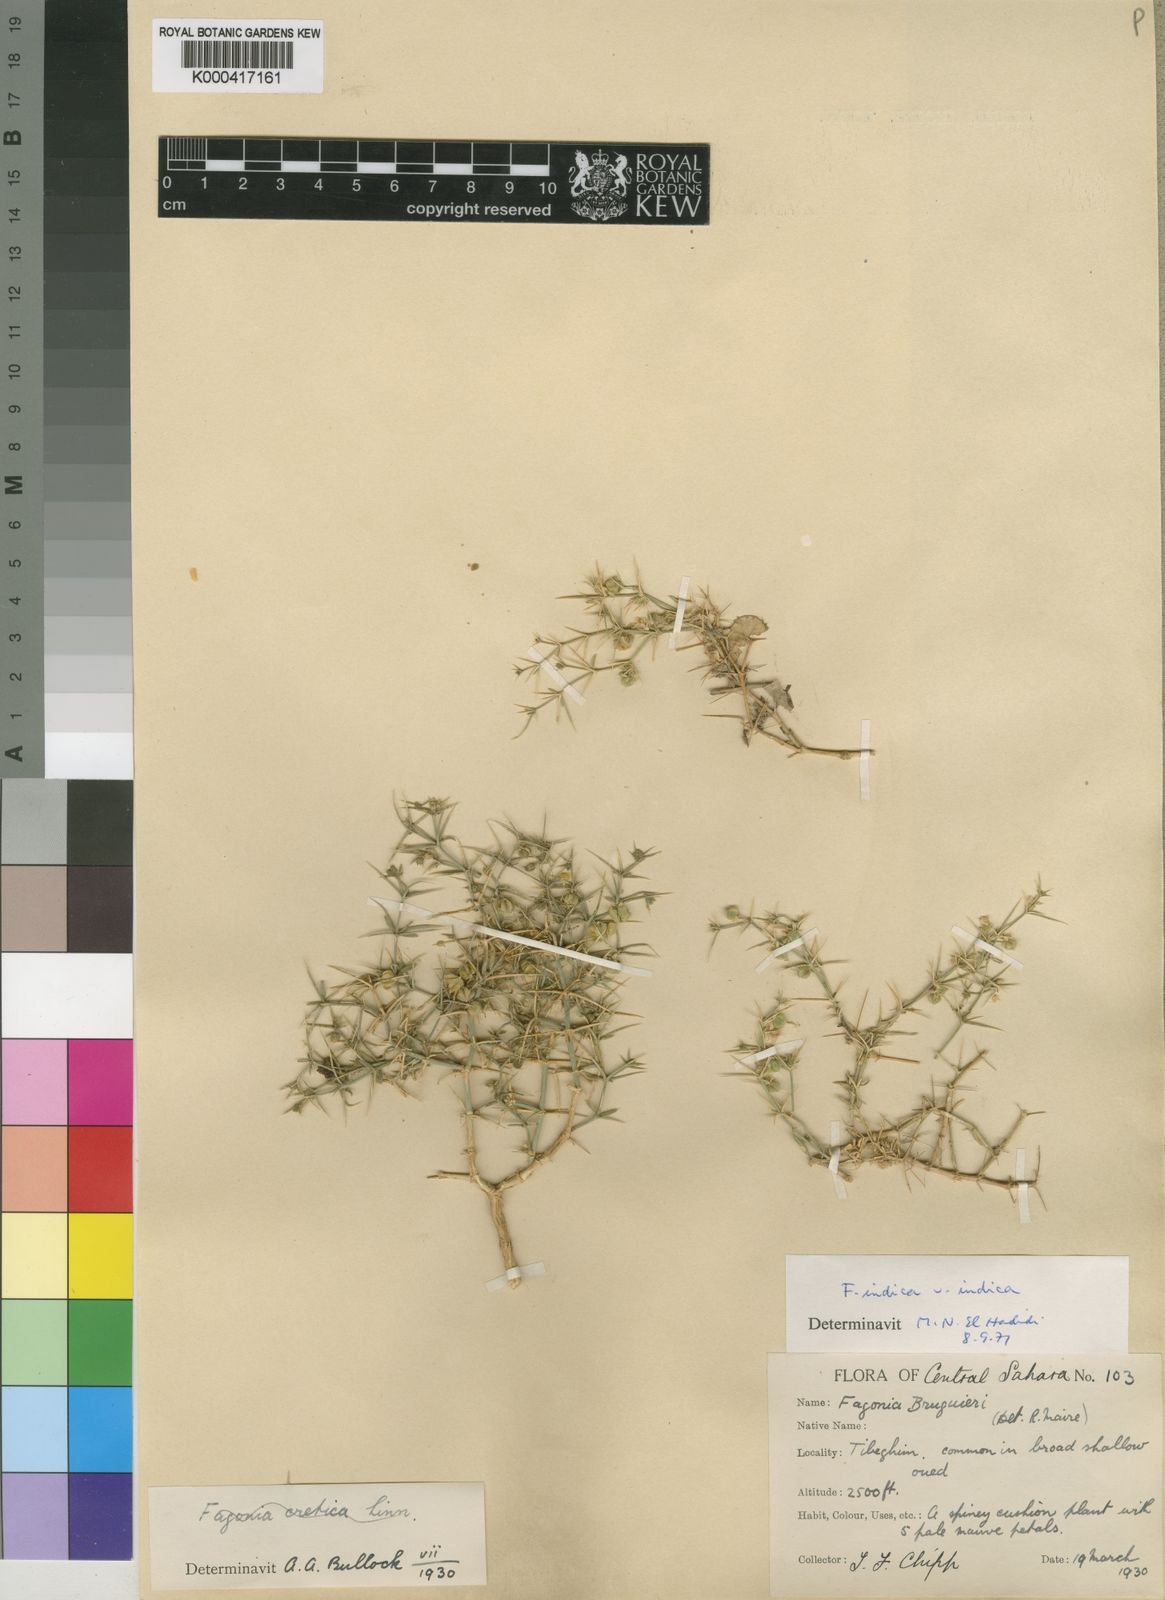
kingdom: Plantae
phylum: Tracheophyta
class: Magnoliopsida
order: Zygophyllales
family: Zygophyllaceae
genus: Fagonia
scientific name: Fagonia indica
